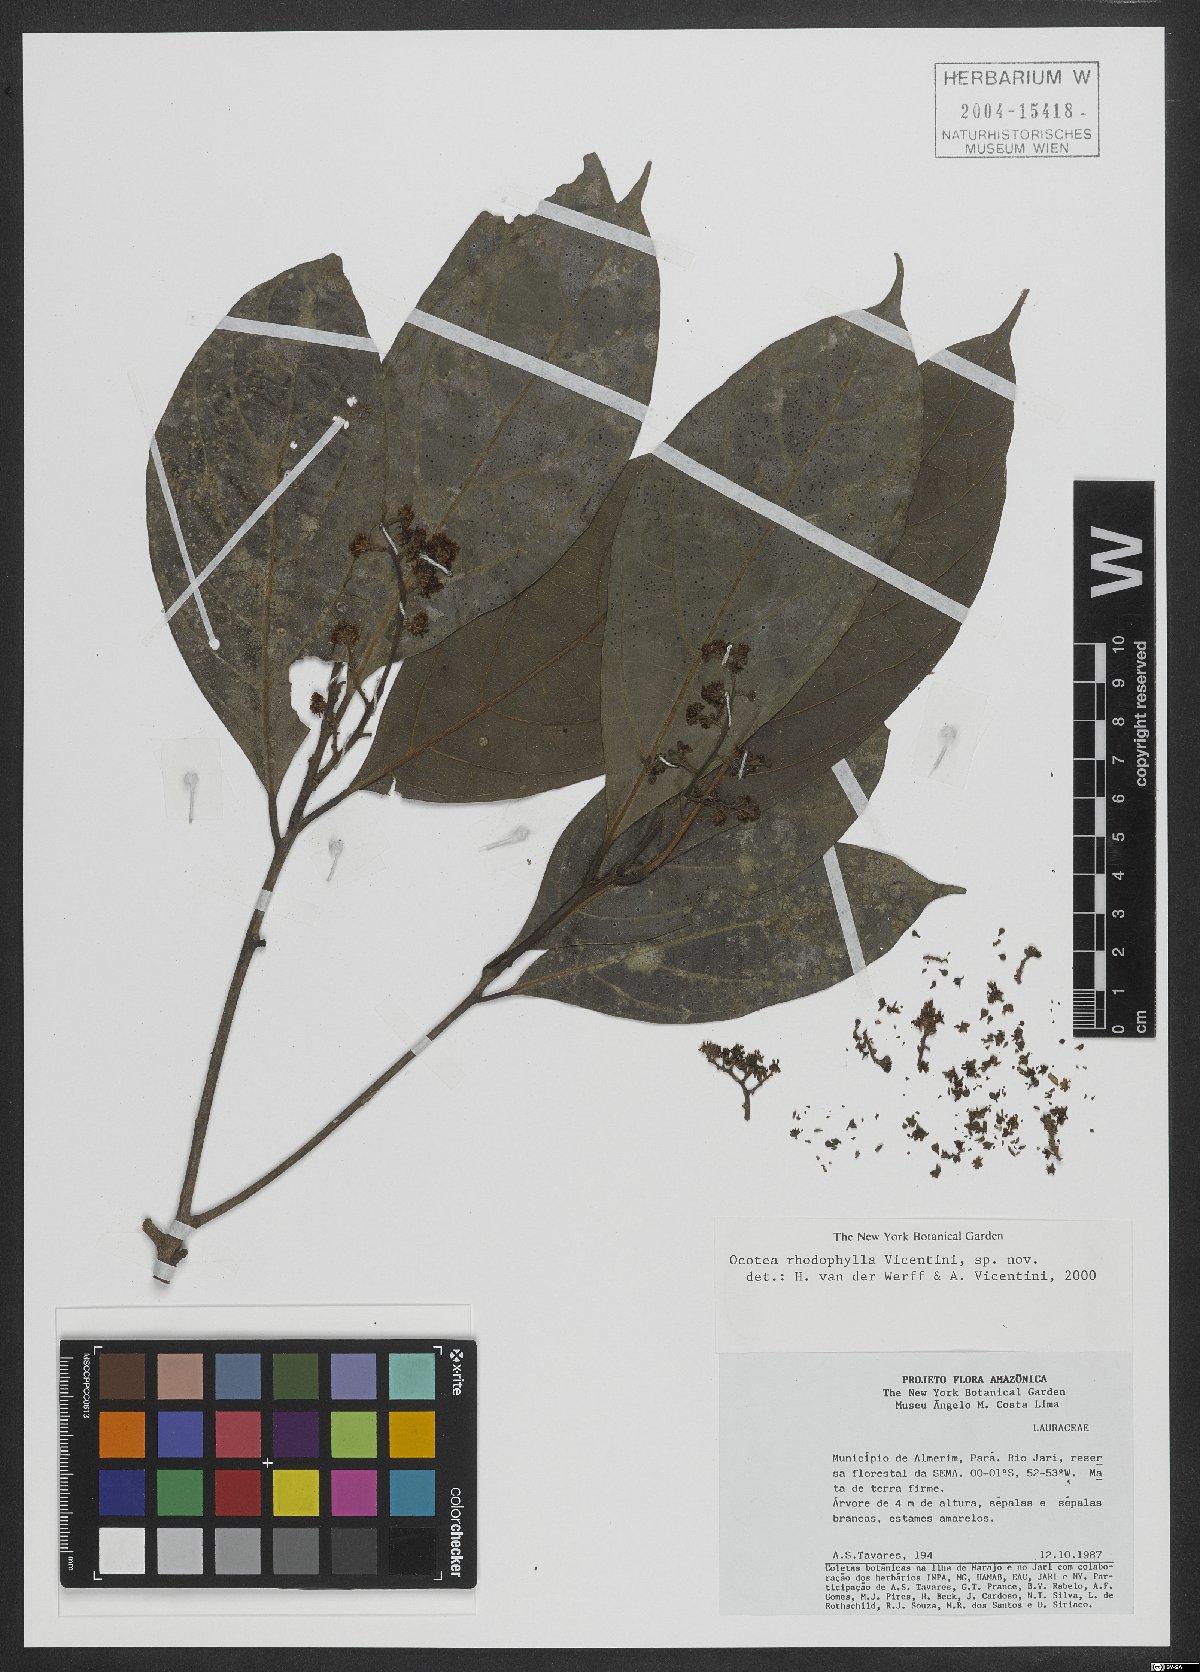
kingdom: Plantae
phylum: Tracheophyta
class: Magnoliopsida
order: Laurales
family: Lauraceae
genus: Ocotea
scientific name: Ocotea rhodophylla
